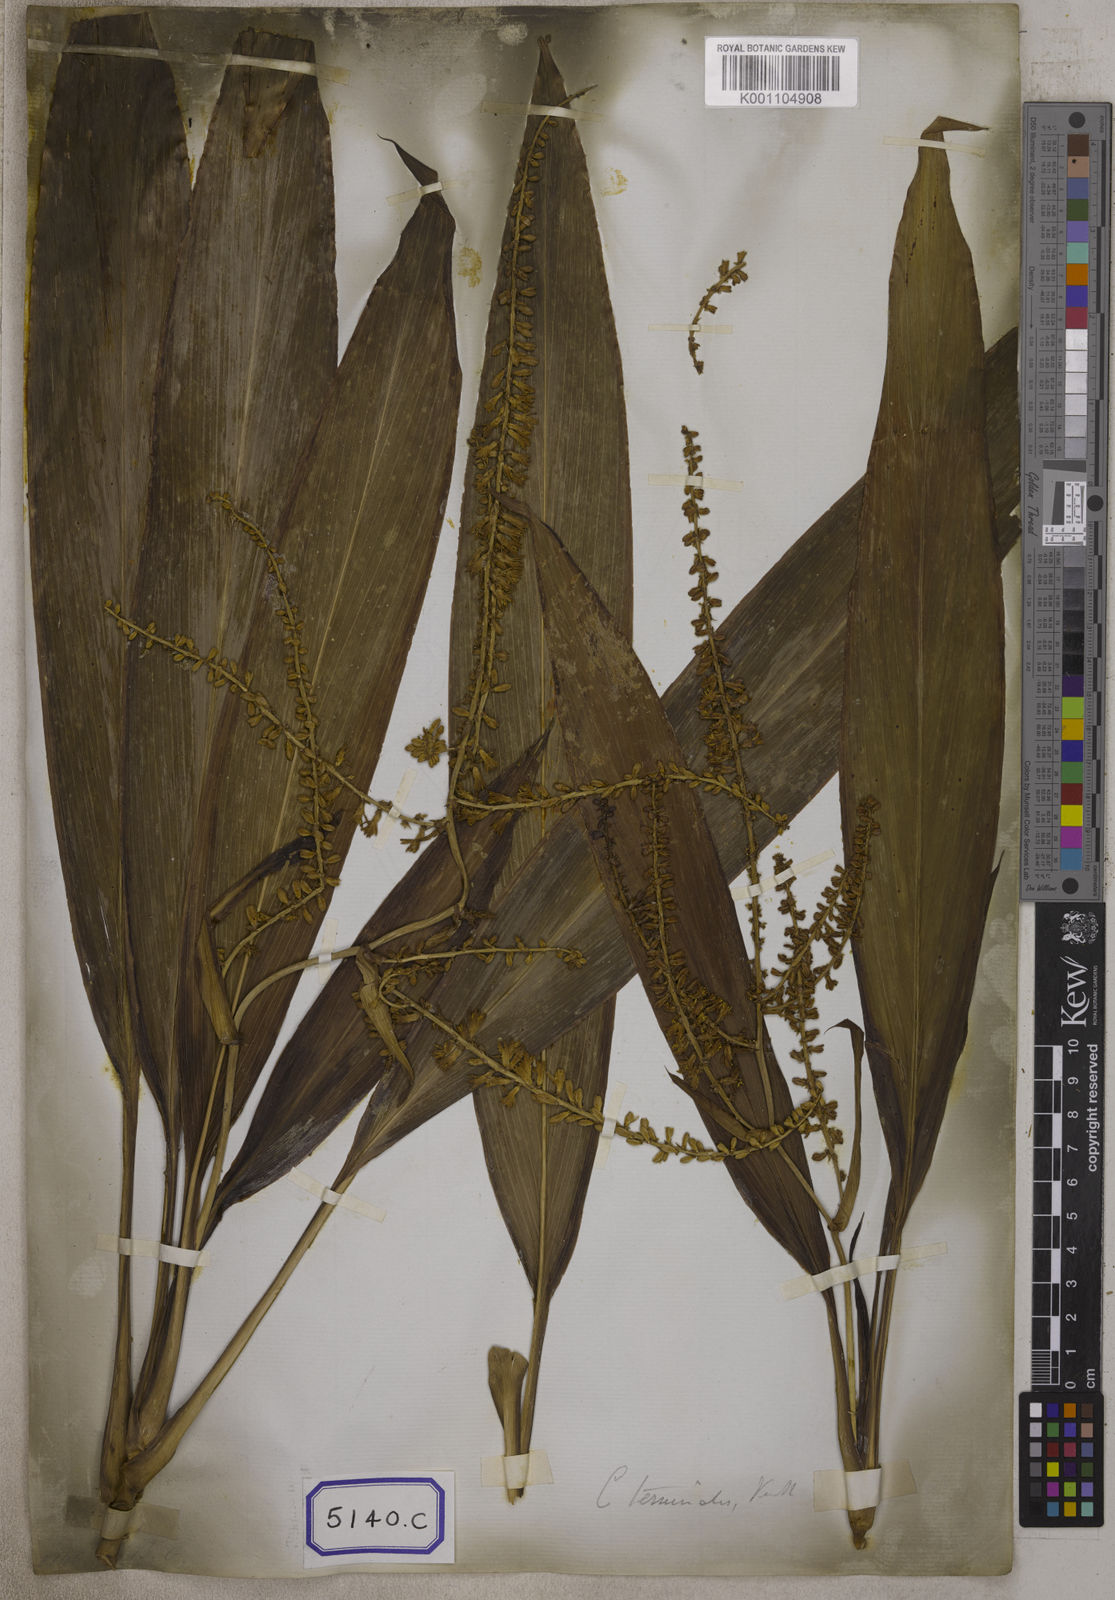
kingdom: Plantae
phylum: Tracheophyta
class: Liliopsida
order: Asparagales
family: Asparagaceae
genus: Cordyline
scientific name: Cordyline fruticosa
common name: Good-luck-plant
